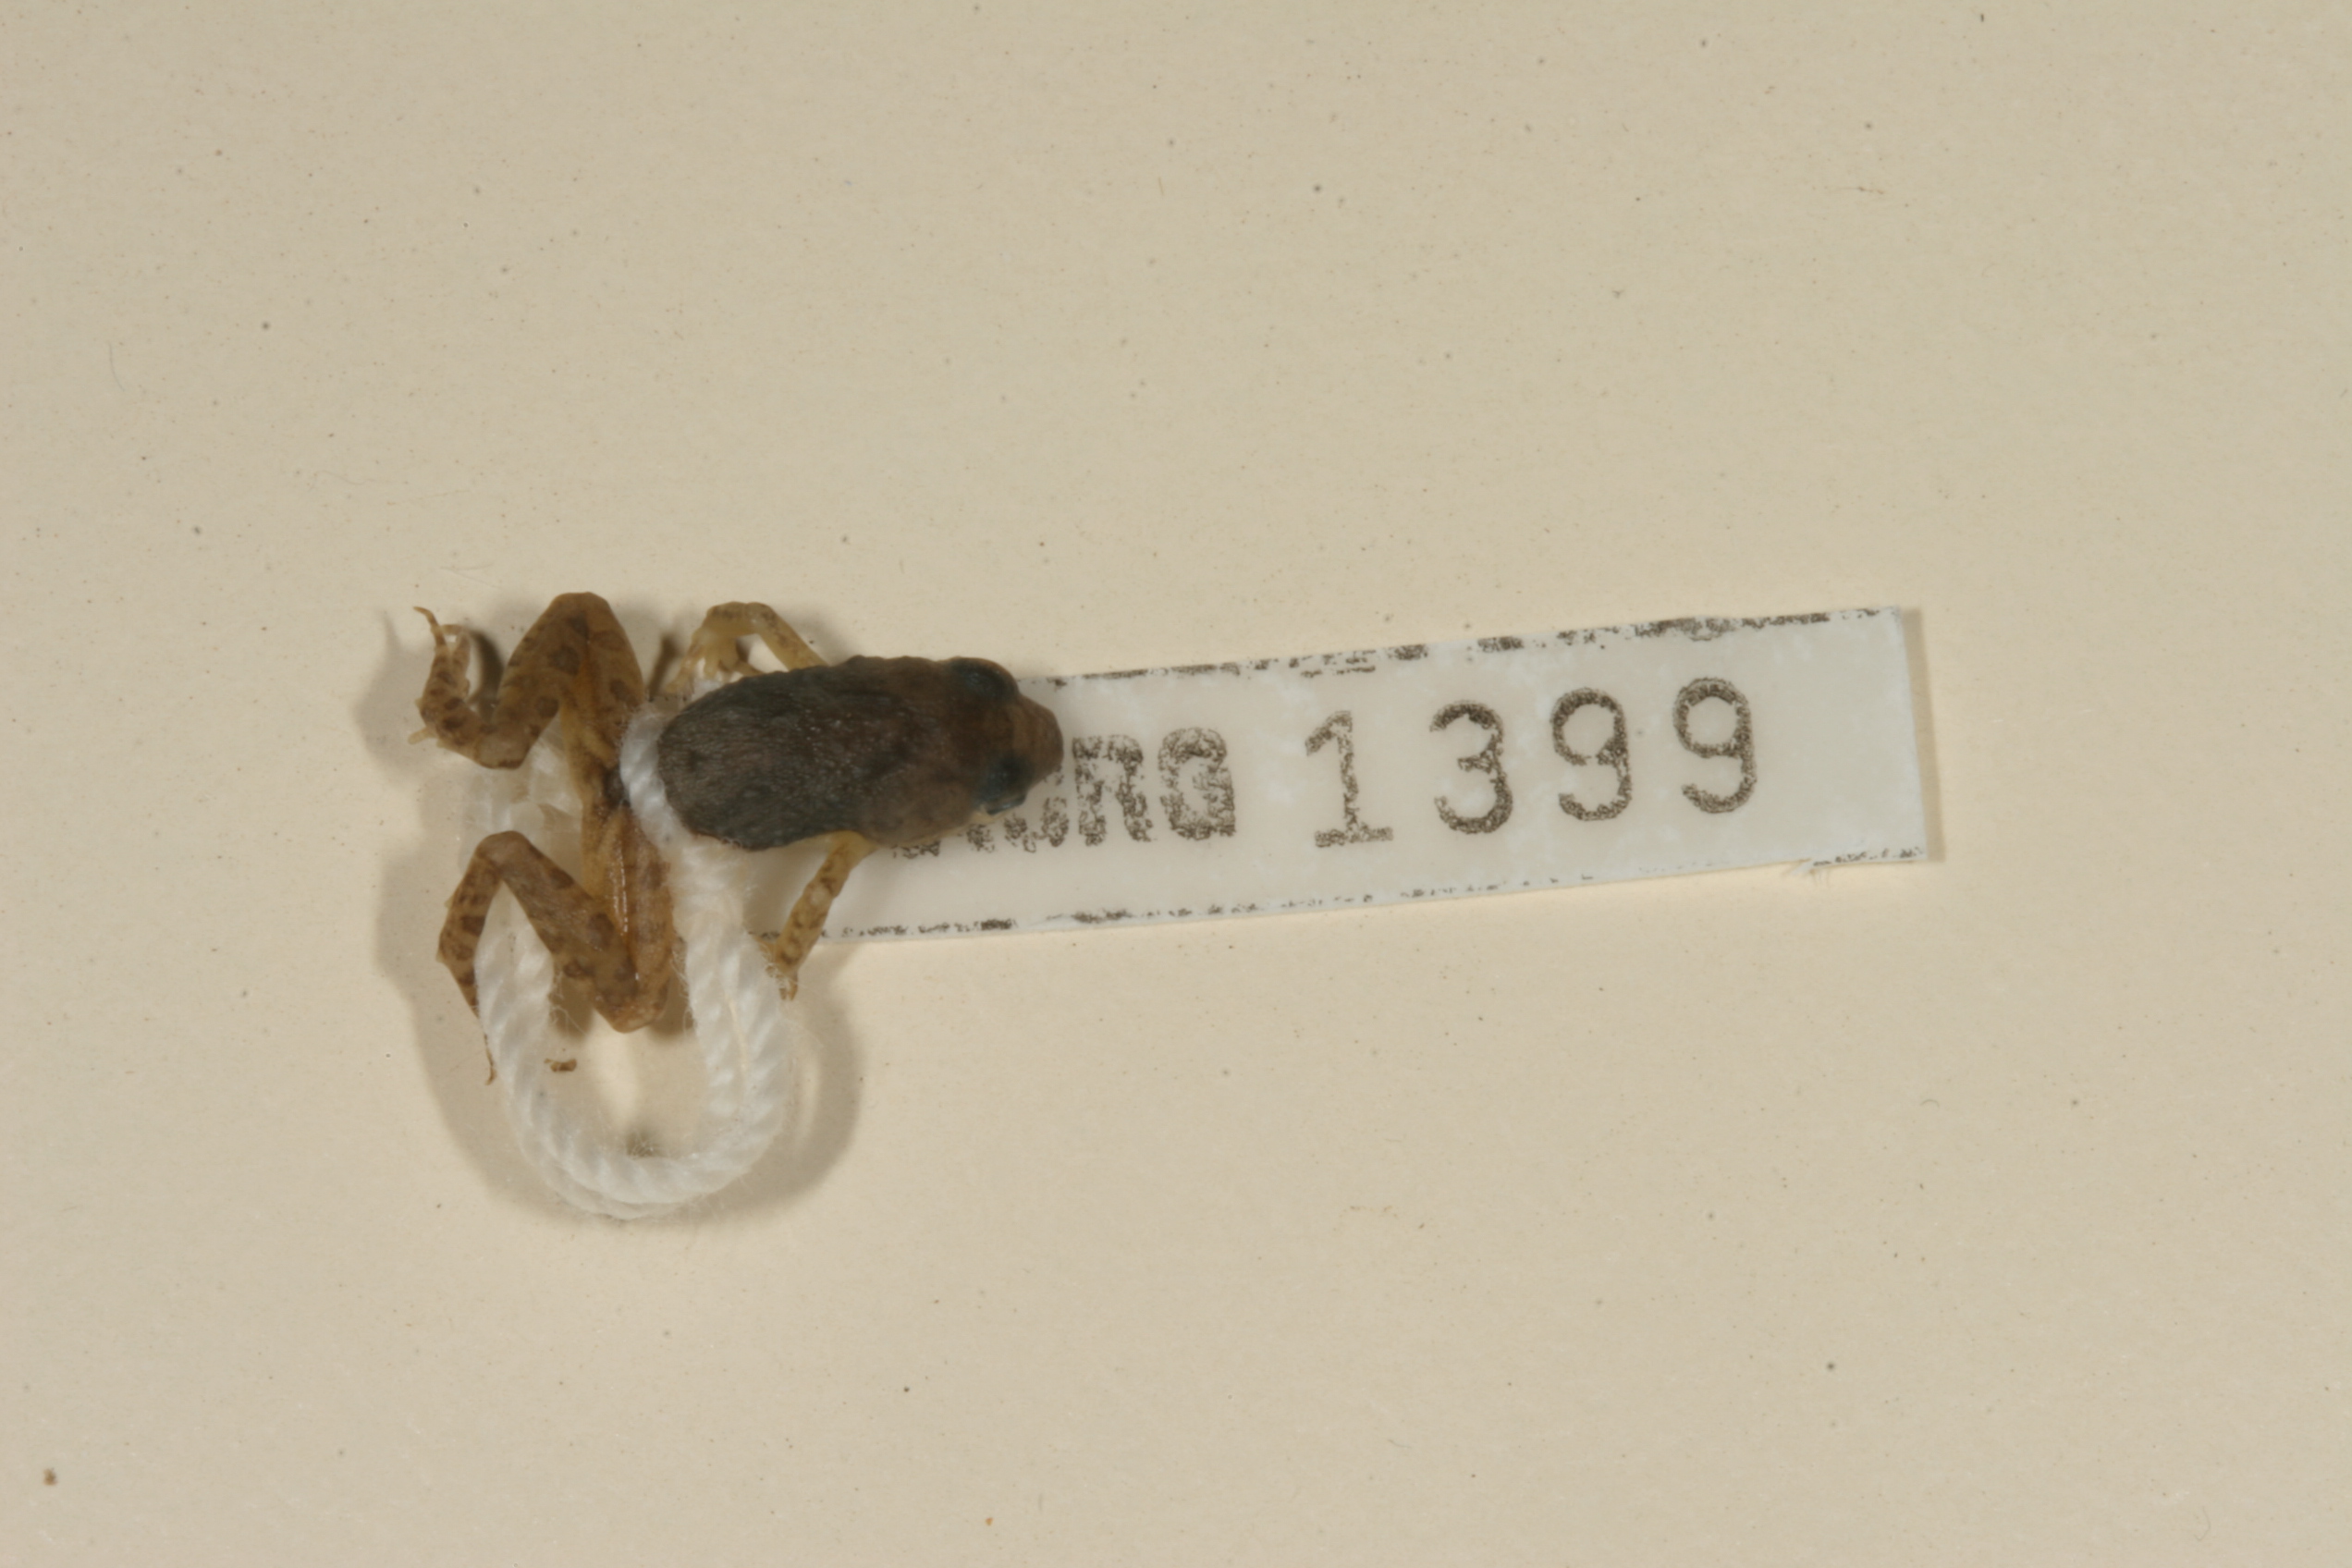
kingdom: Animalia
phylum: Chordata
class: Amphibia
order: Anura
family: Phrynobatrachidae
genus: Phrynobatrachus
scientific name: Phrynobatrachus mababiensis
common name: Dwarf puddle frog
